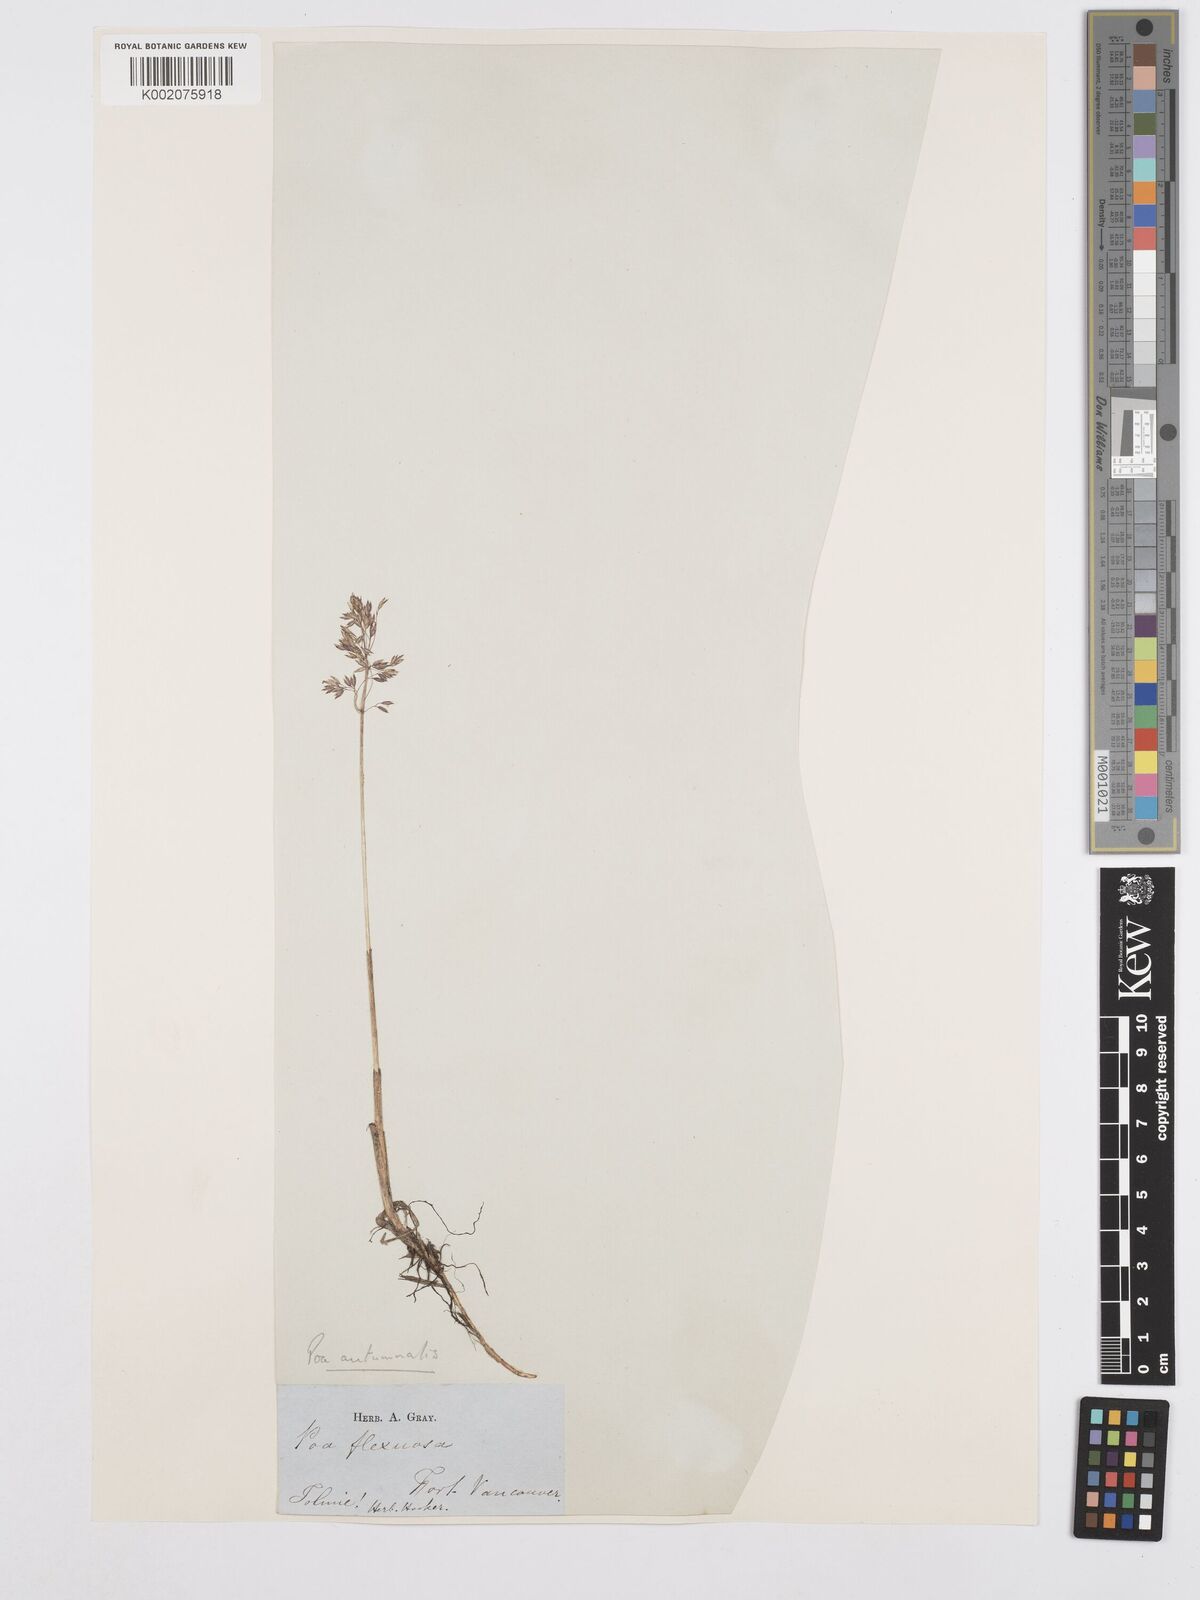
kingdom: Plantae
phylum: Tracheophyta
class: Liliopsida
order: Poales
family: Poaceae
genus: Poa
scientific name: Poa autumnalis
